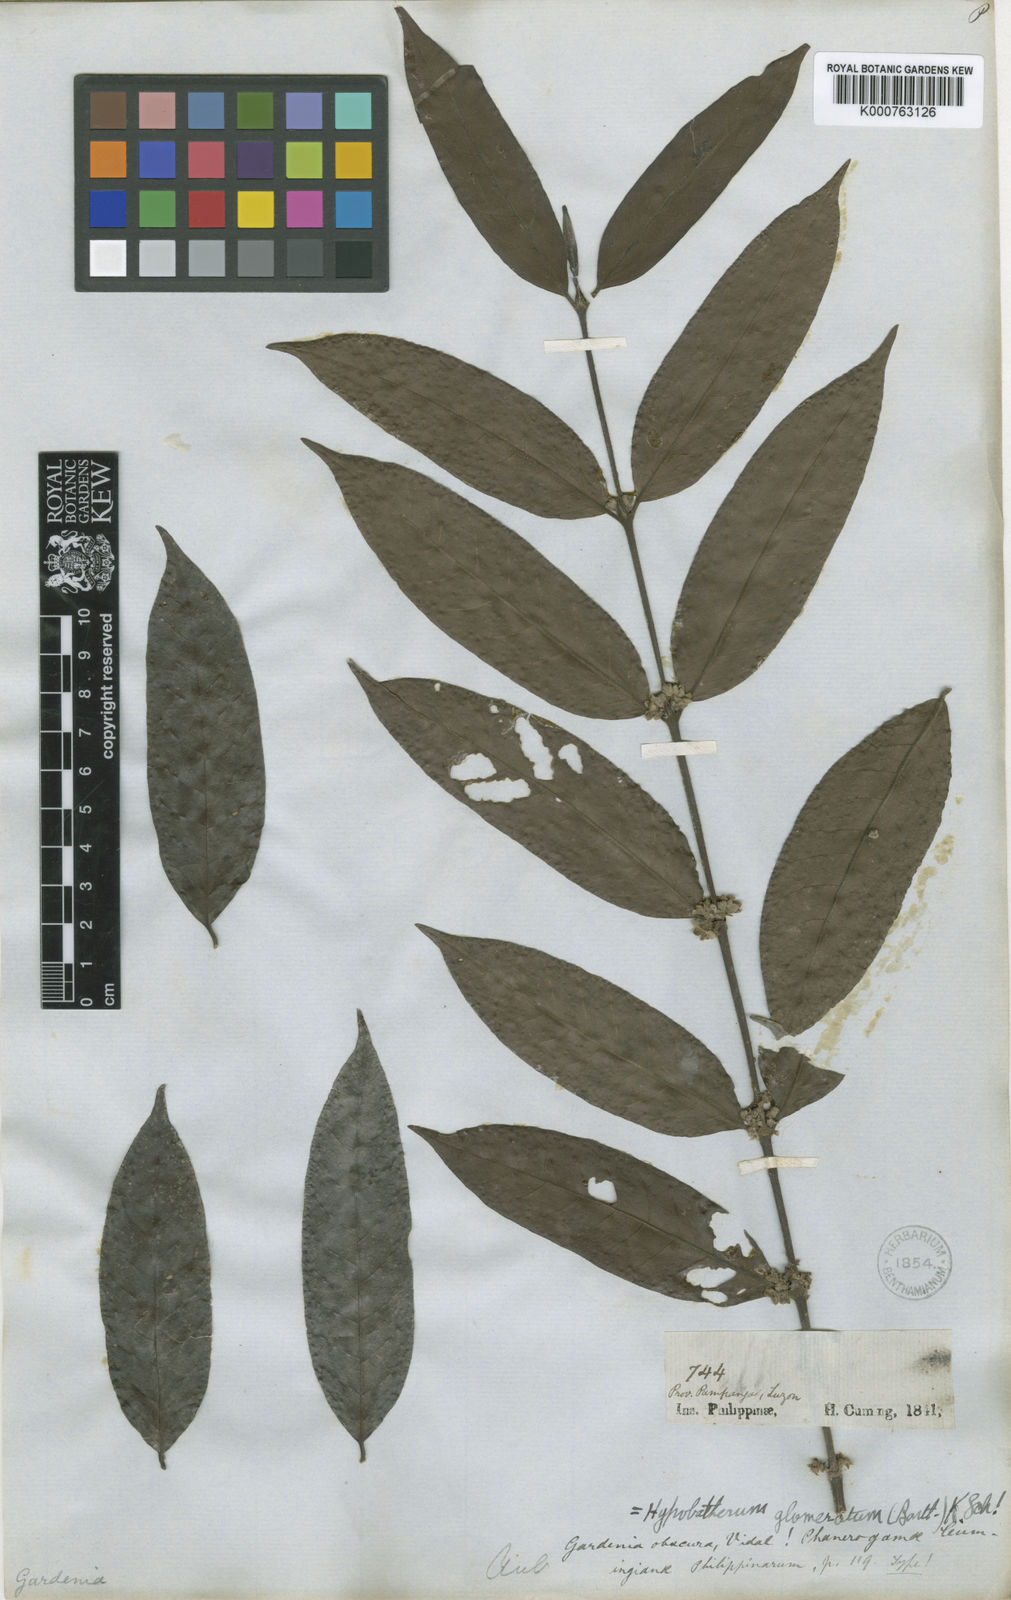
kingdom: Plantae
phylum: Tracheophyta
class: Magnoliopsida
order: Gentianales
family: Rubiaceae
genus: Villaria
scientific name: Villaria glomerata
